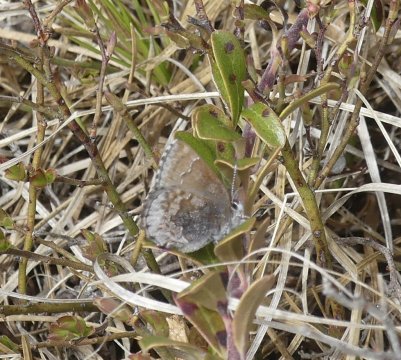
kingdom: Animalia
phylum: Arthropoda
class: Insecta
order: Lepidoptera
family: Lycaenidae
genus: Callophrys
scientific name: Callophrys polios
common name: Hoary Elfin
